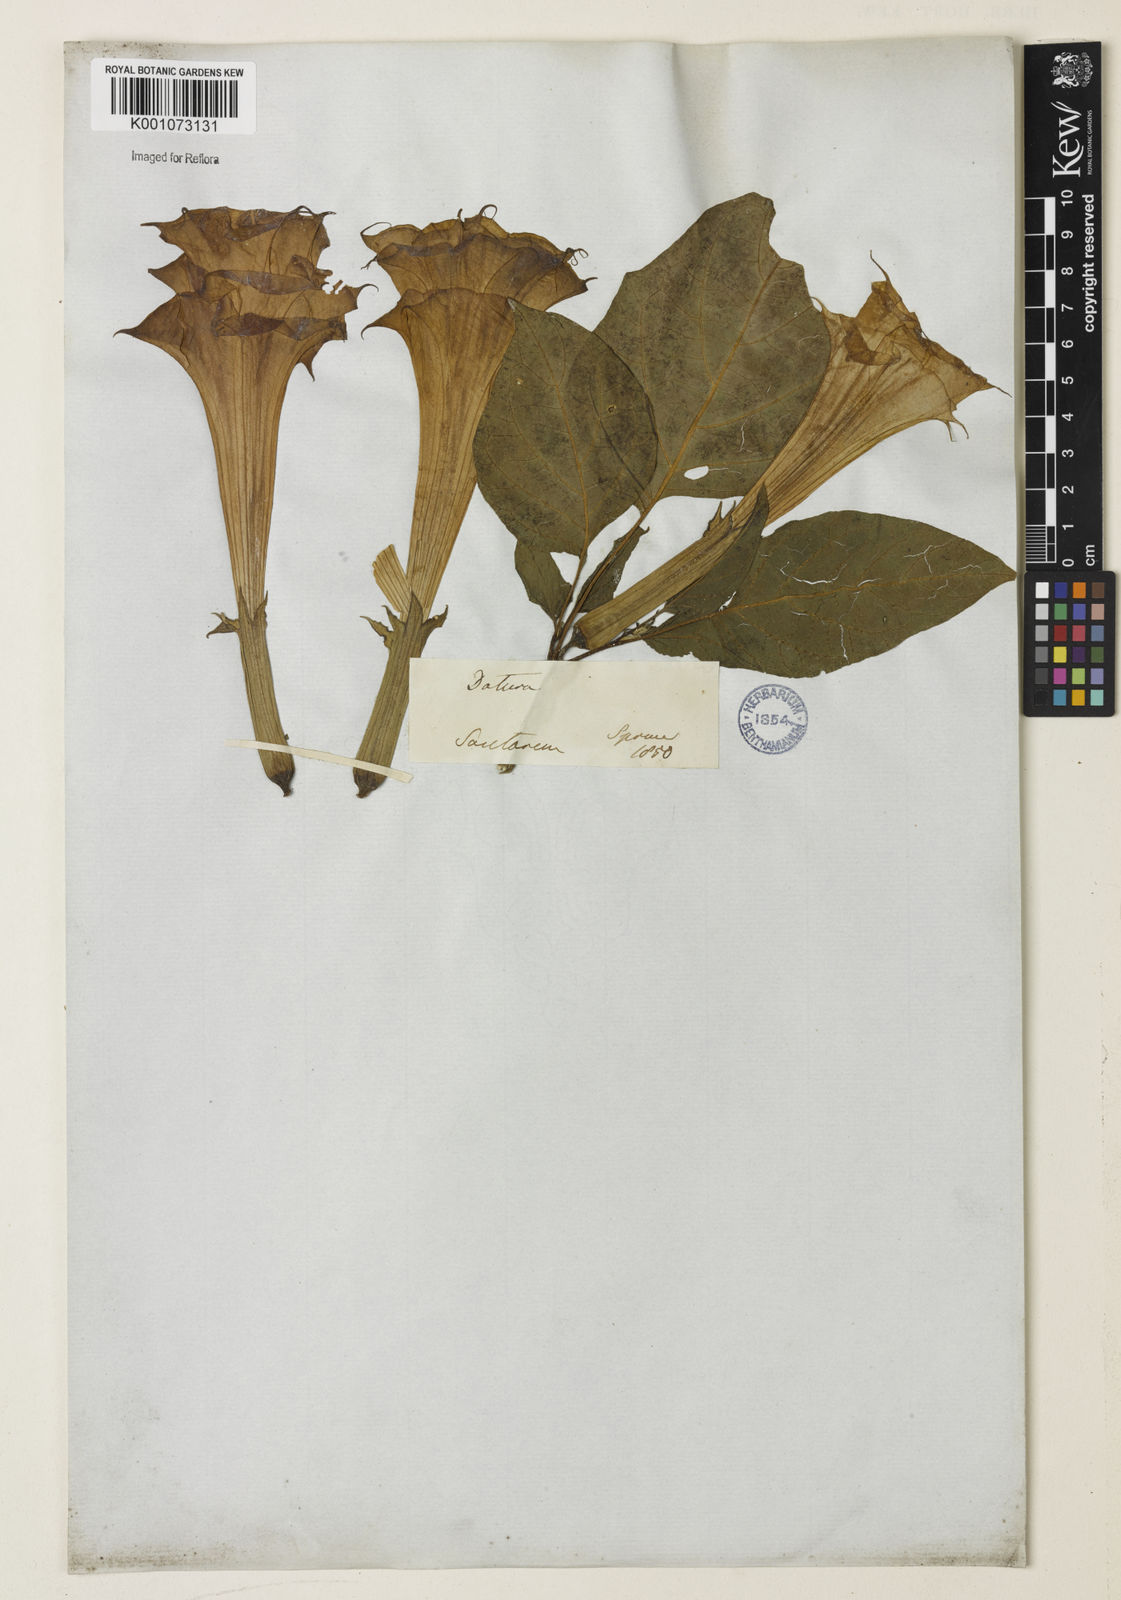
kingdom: Plantae
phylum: Tracheophyta
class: Magnoliopsida
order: Solanales
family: Solanaceae
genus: Datura
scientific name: Datura metel
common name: Jimsonweed
